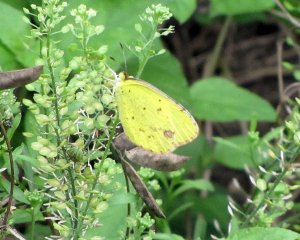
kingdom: Animalia
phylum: Arthropoda
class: Insecta
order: Lepidoptera
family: Pieridae
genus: Pyrisitia
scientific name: Pyrisitia lisa
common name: Little Yellow
